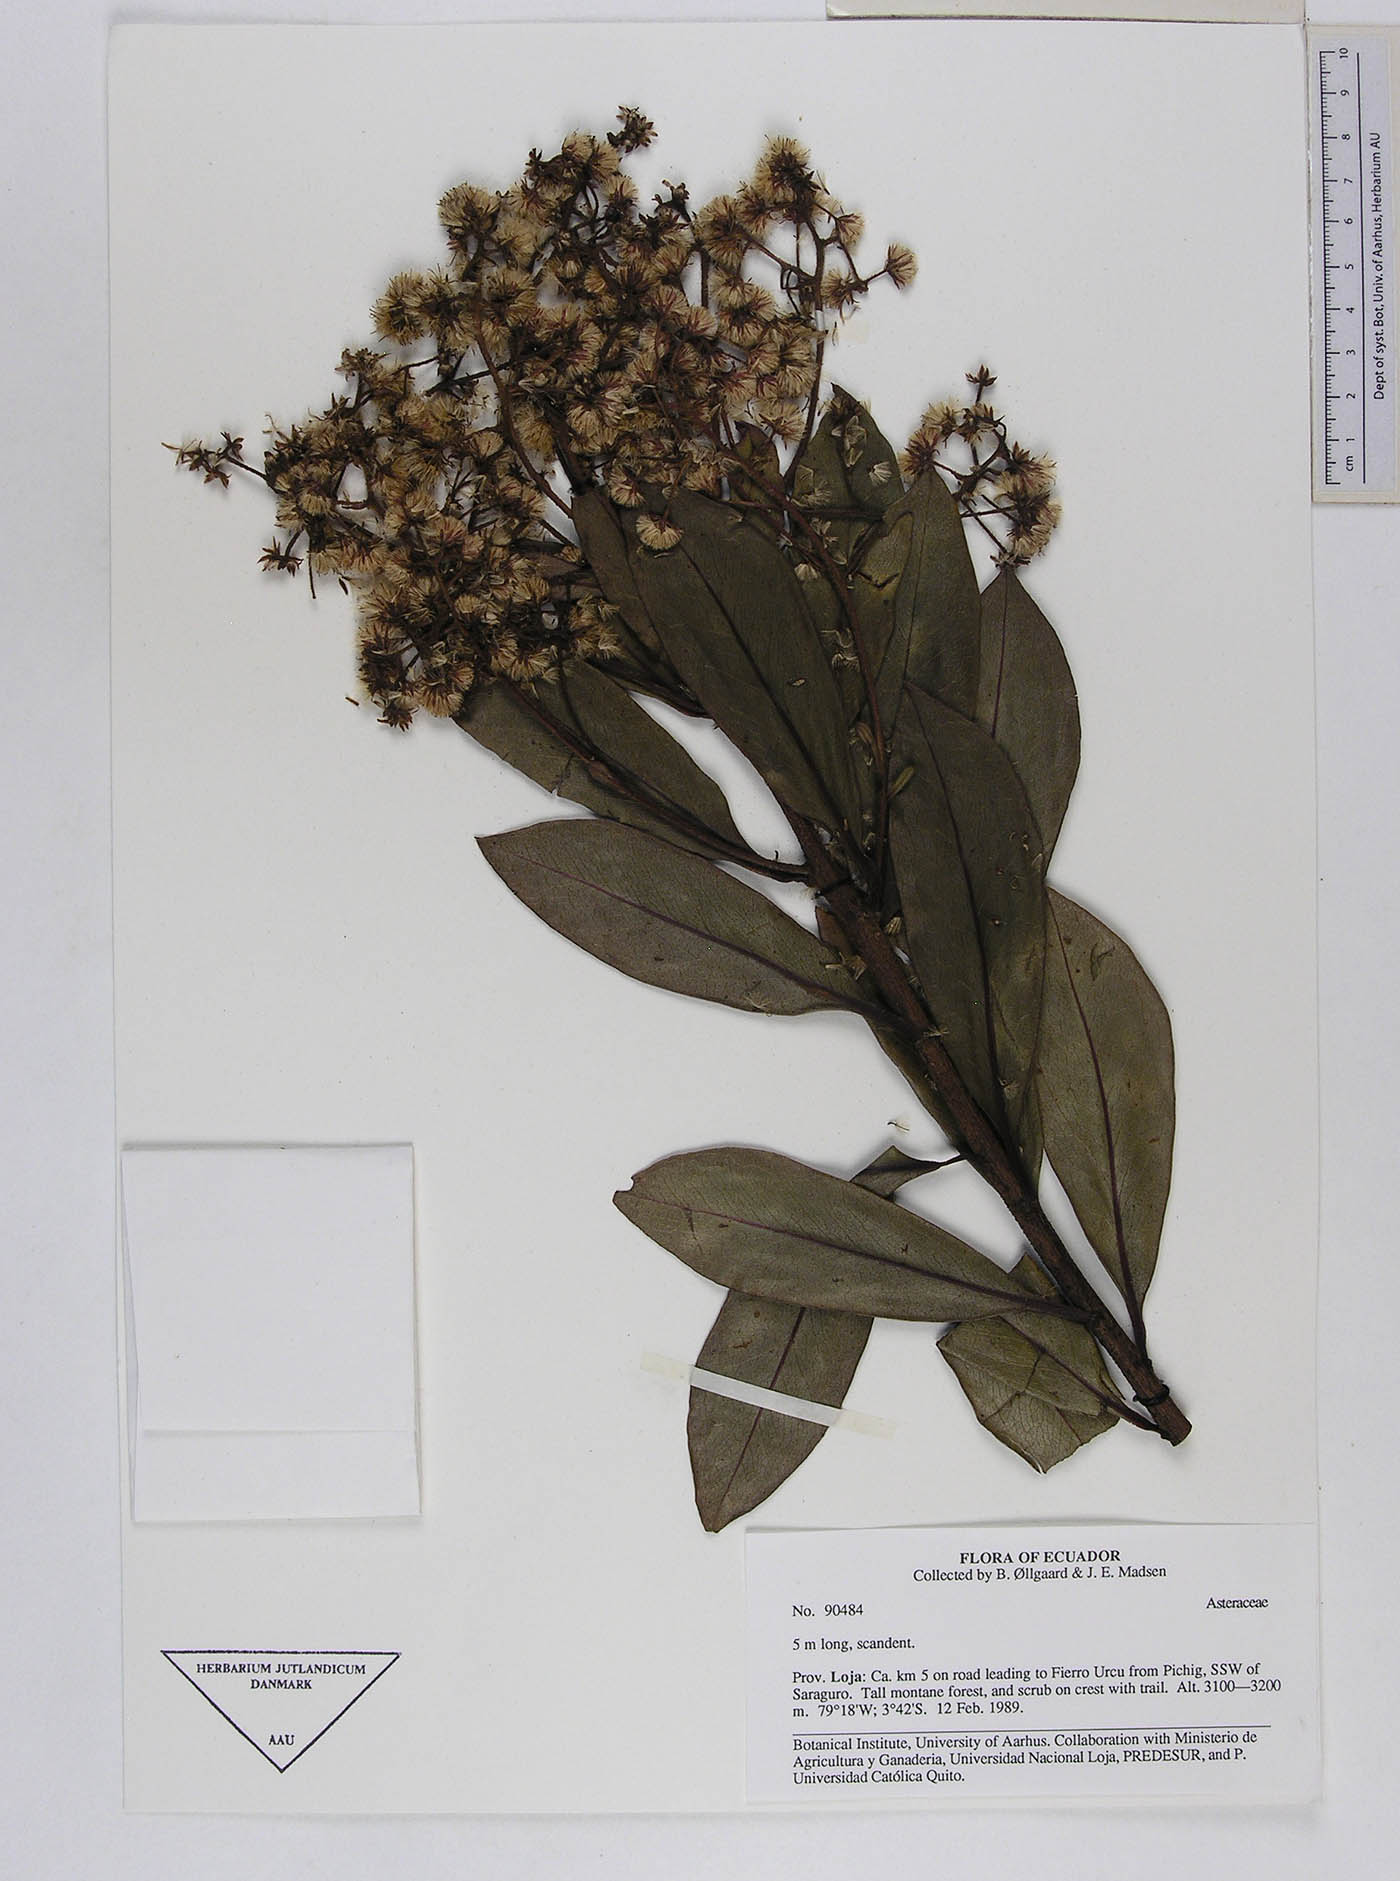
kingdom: Plantae
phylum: Tracheophyta
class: Magnoliopsida
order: Asterales
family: Asteraceae
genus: Baccharis
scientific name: Baccharis oblongifolia
